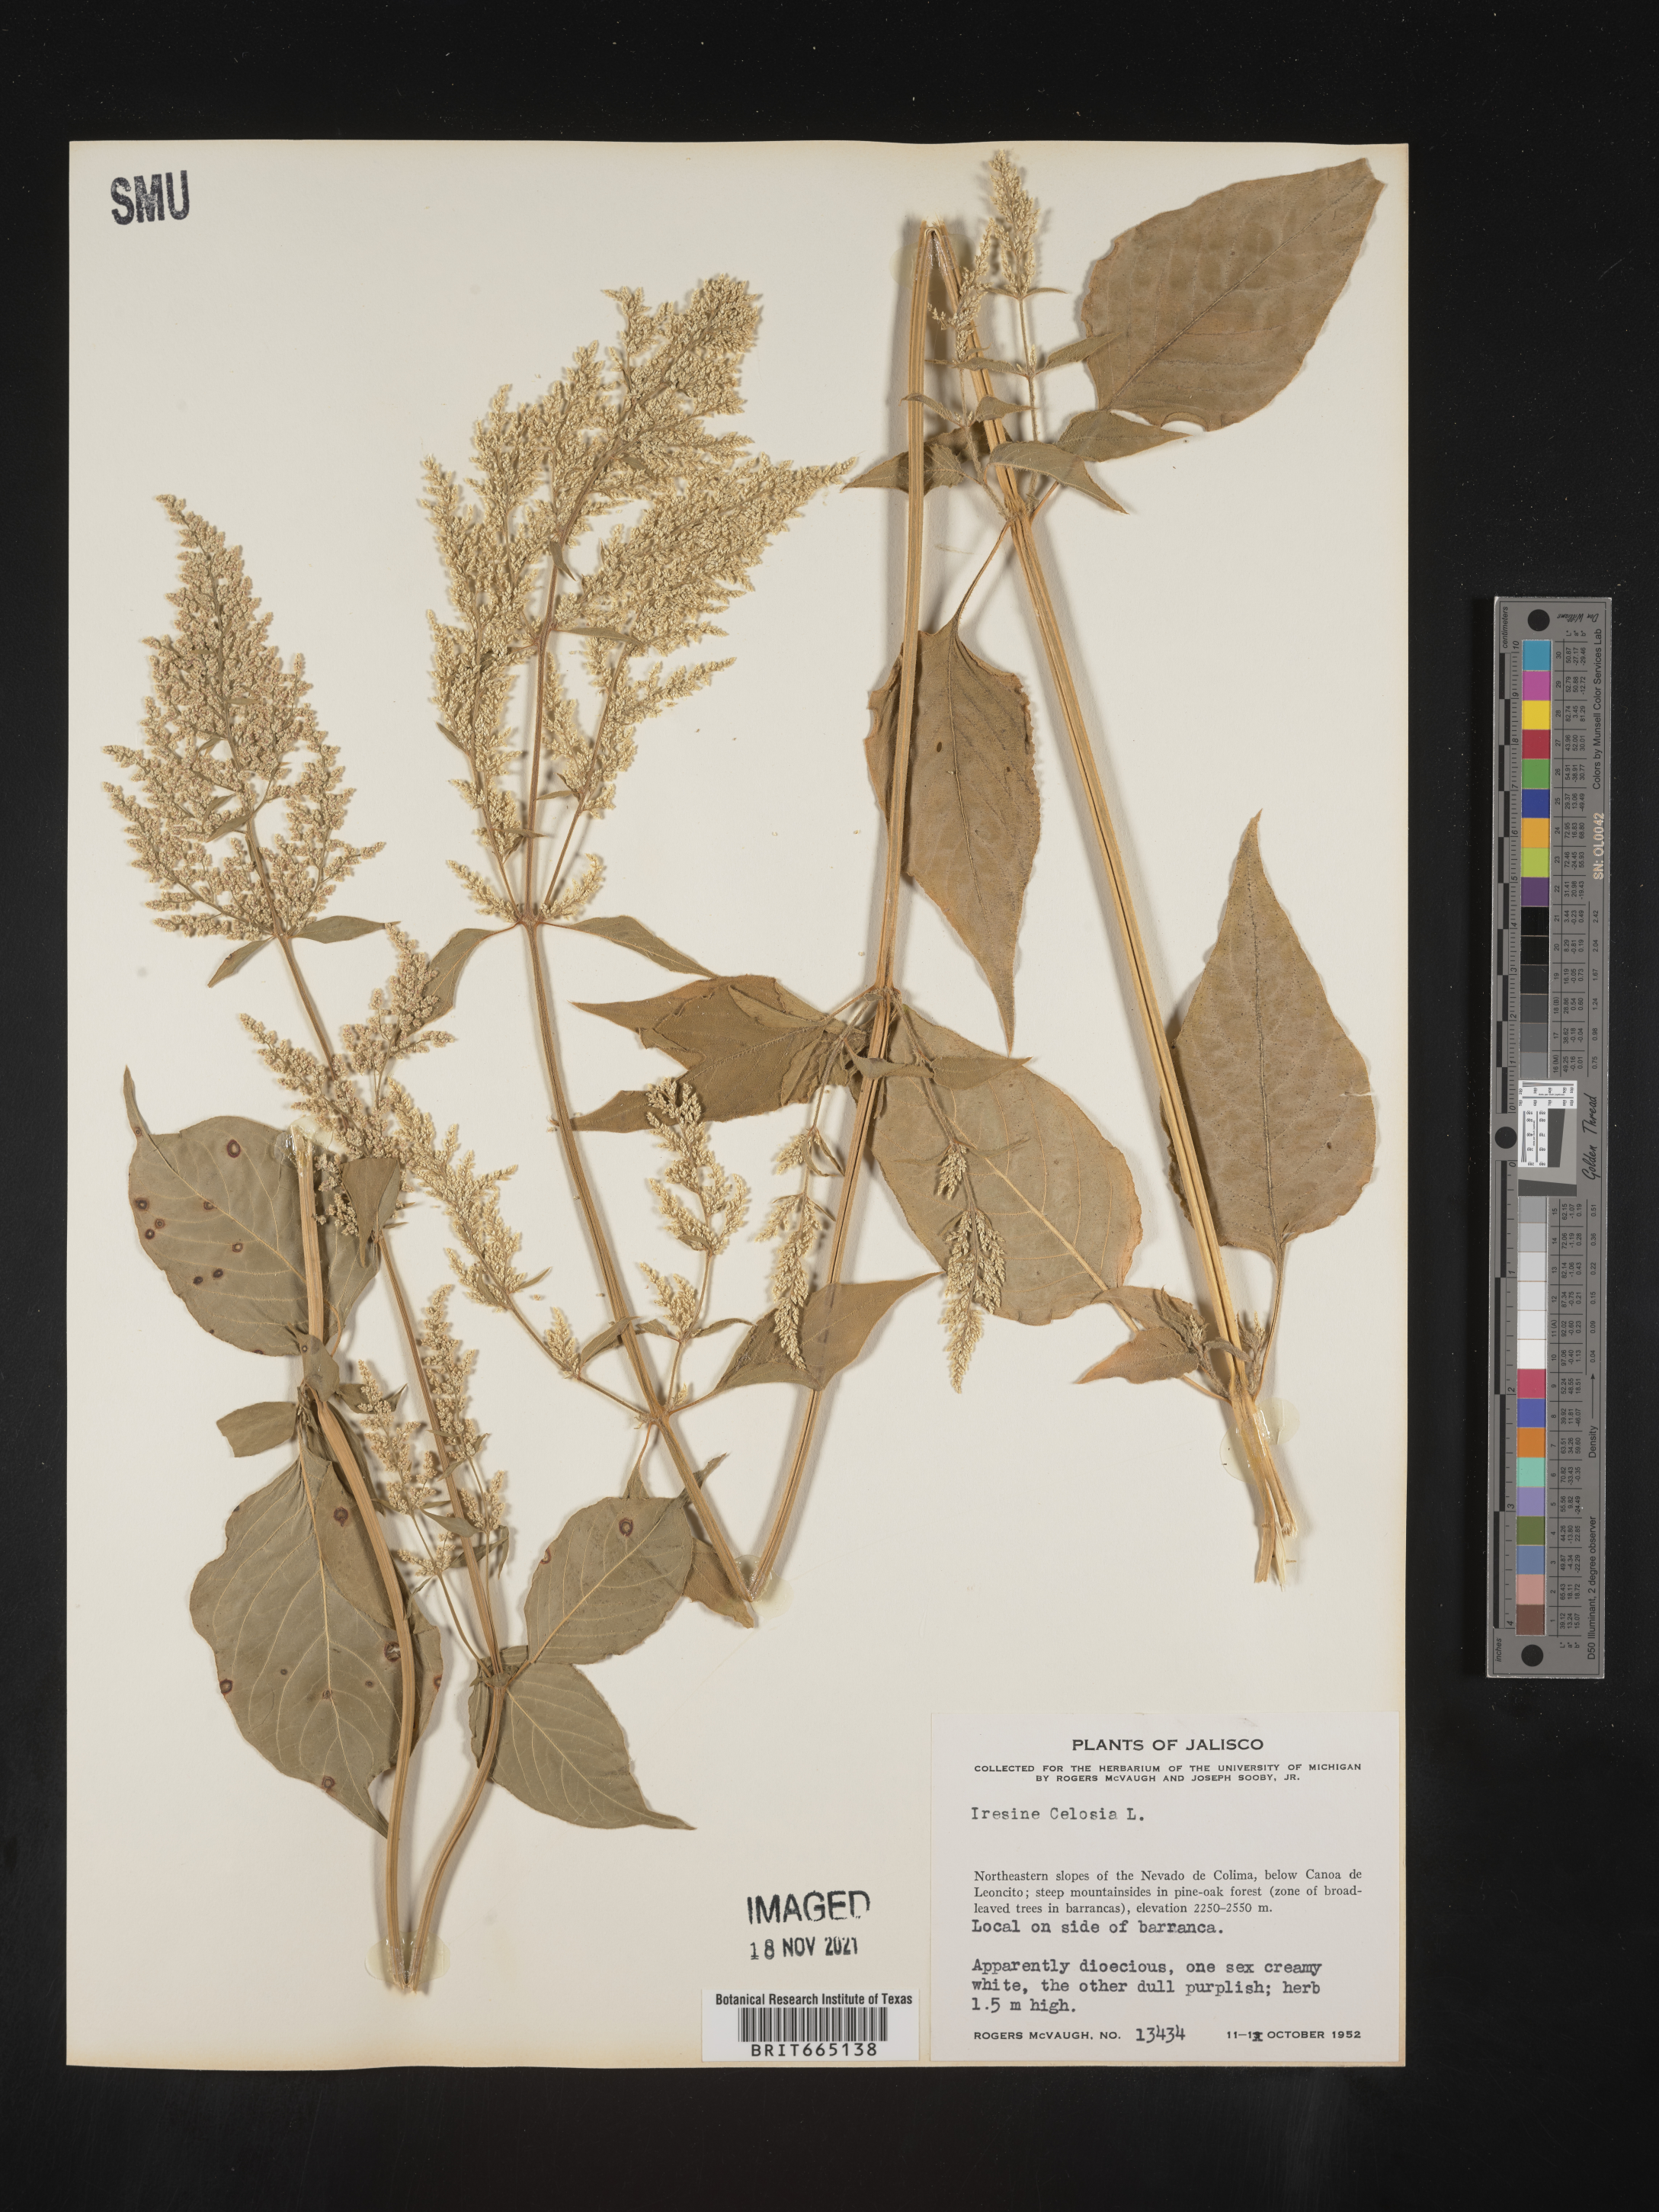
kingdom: Plantae
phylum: Tracheophyta
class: Magnoliopsida
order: Caryophyllales
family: Amaranthaceae
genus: Iresine
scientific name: Iresine
